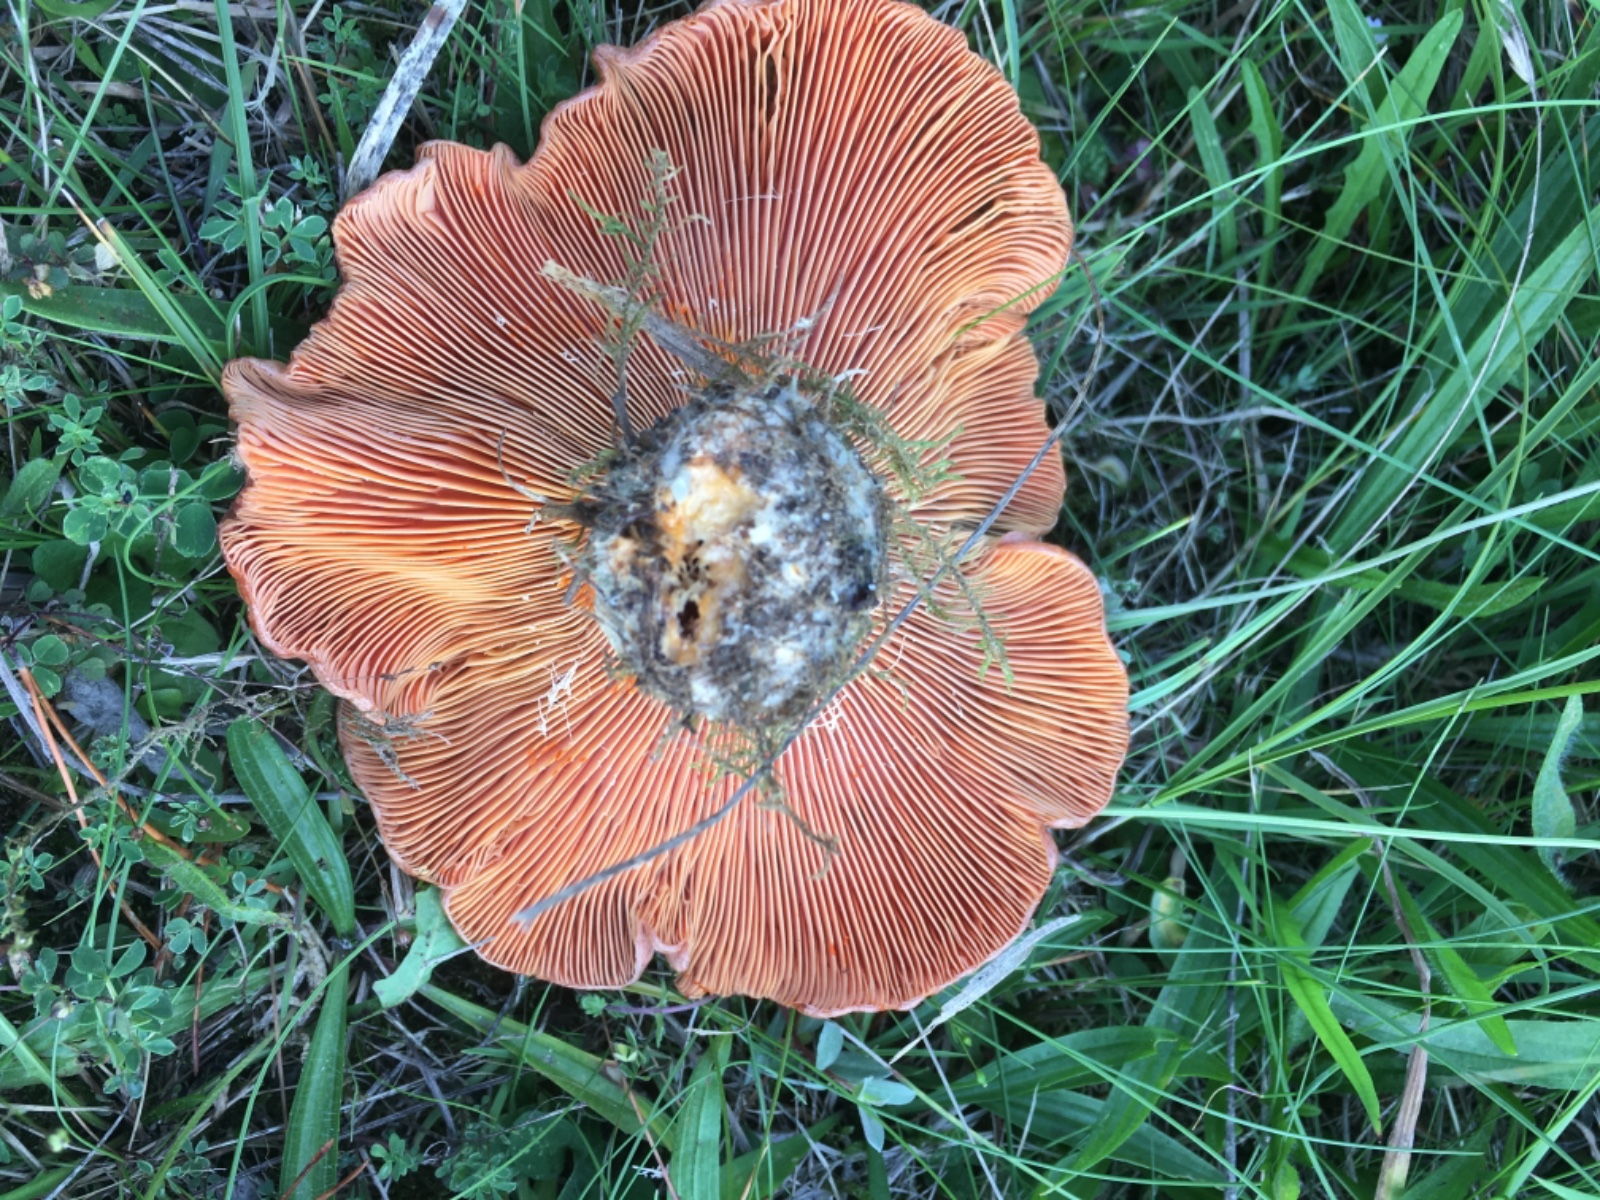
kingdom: Fungi
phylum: Basidiomycota
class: Agaricomycetes
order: Russulales
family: Russulaceae
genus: Lactarius
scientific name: Lactarius
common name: mælkehat
